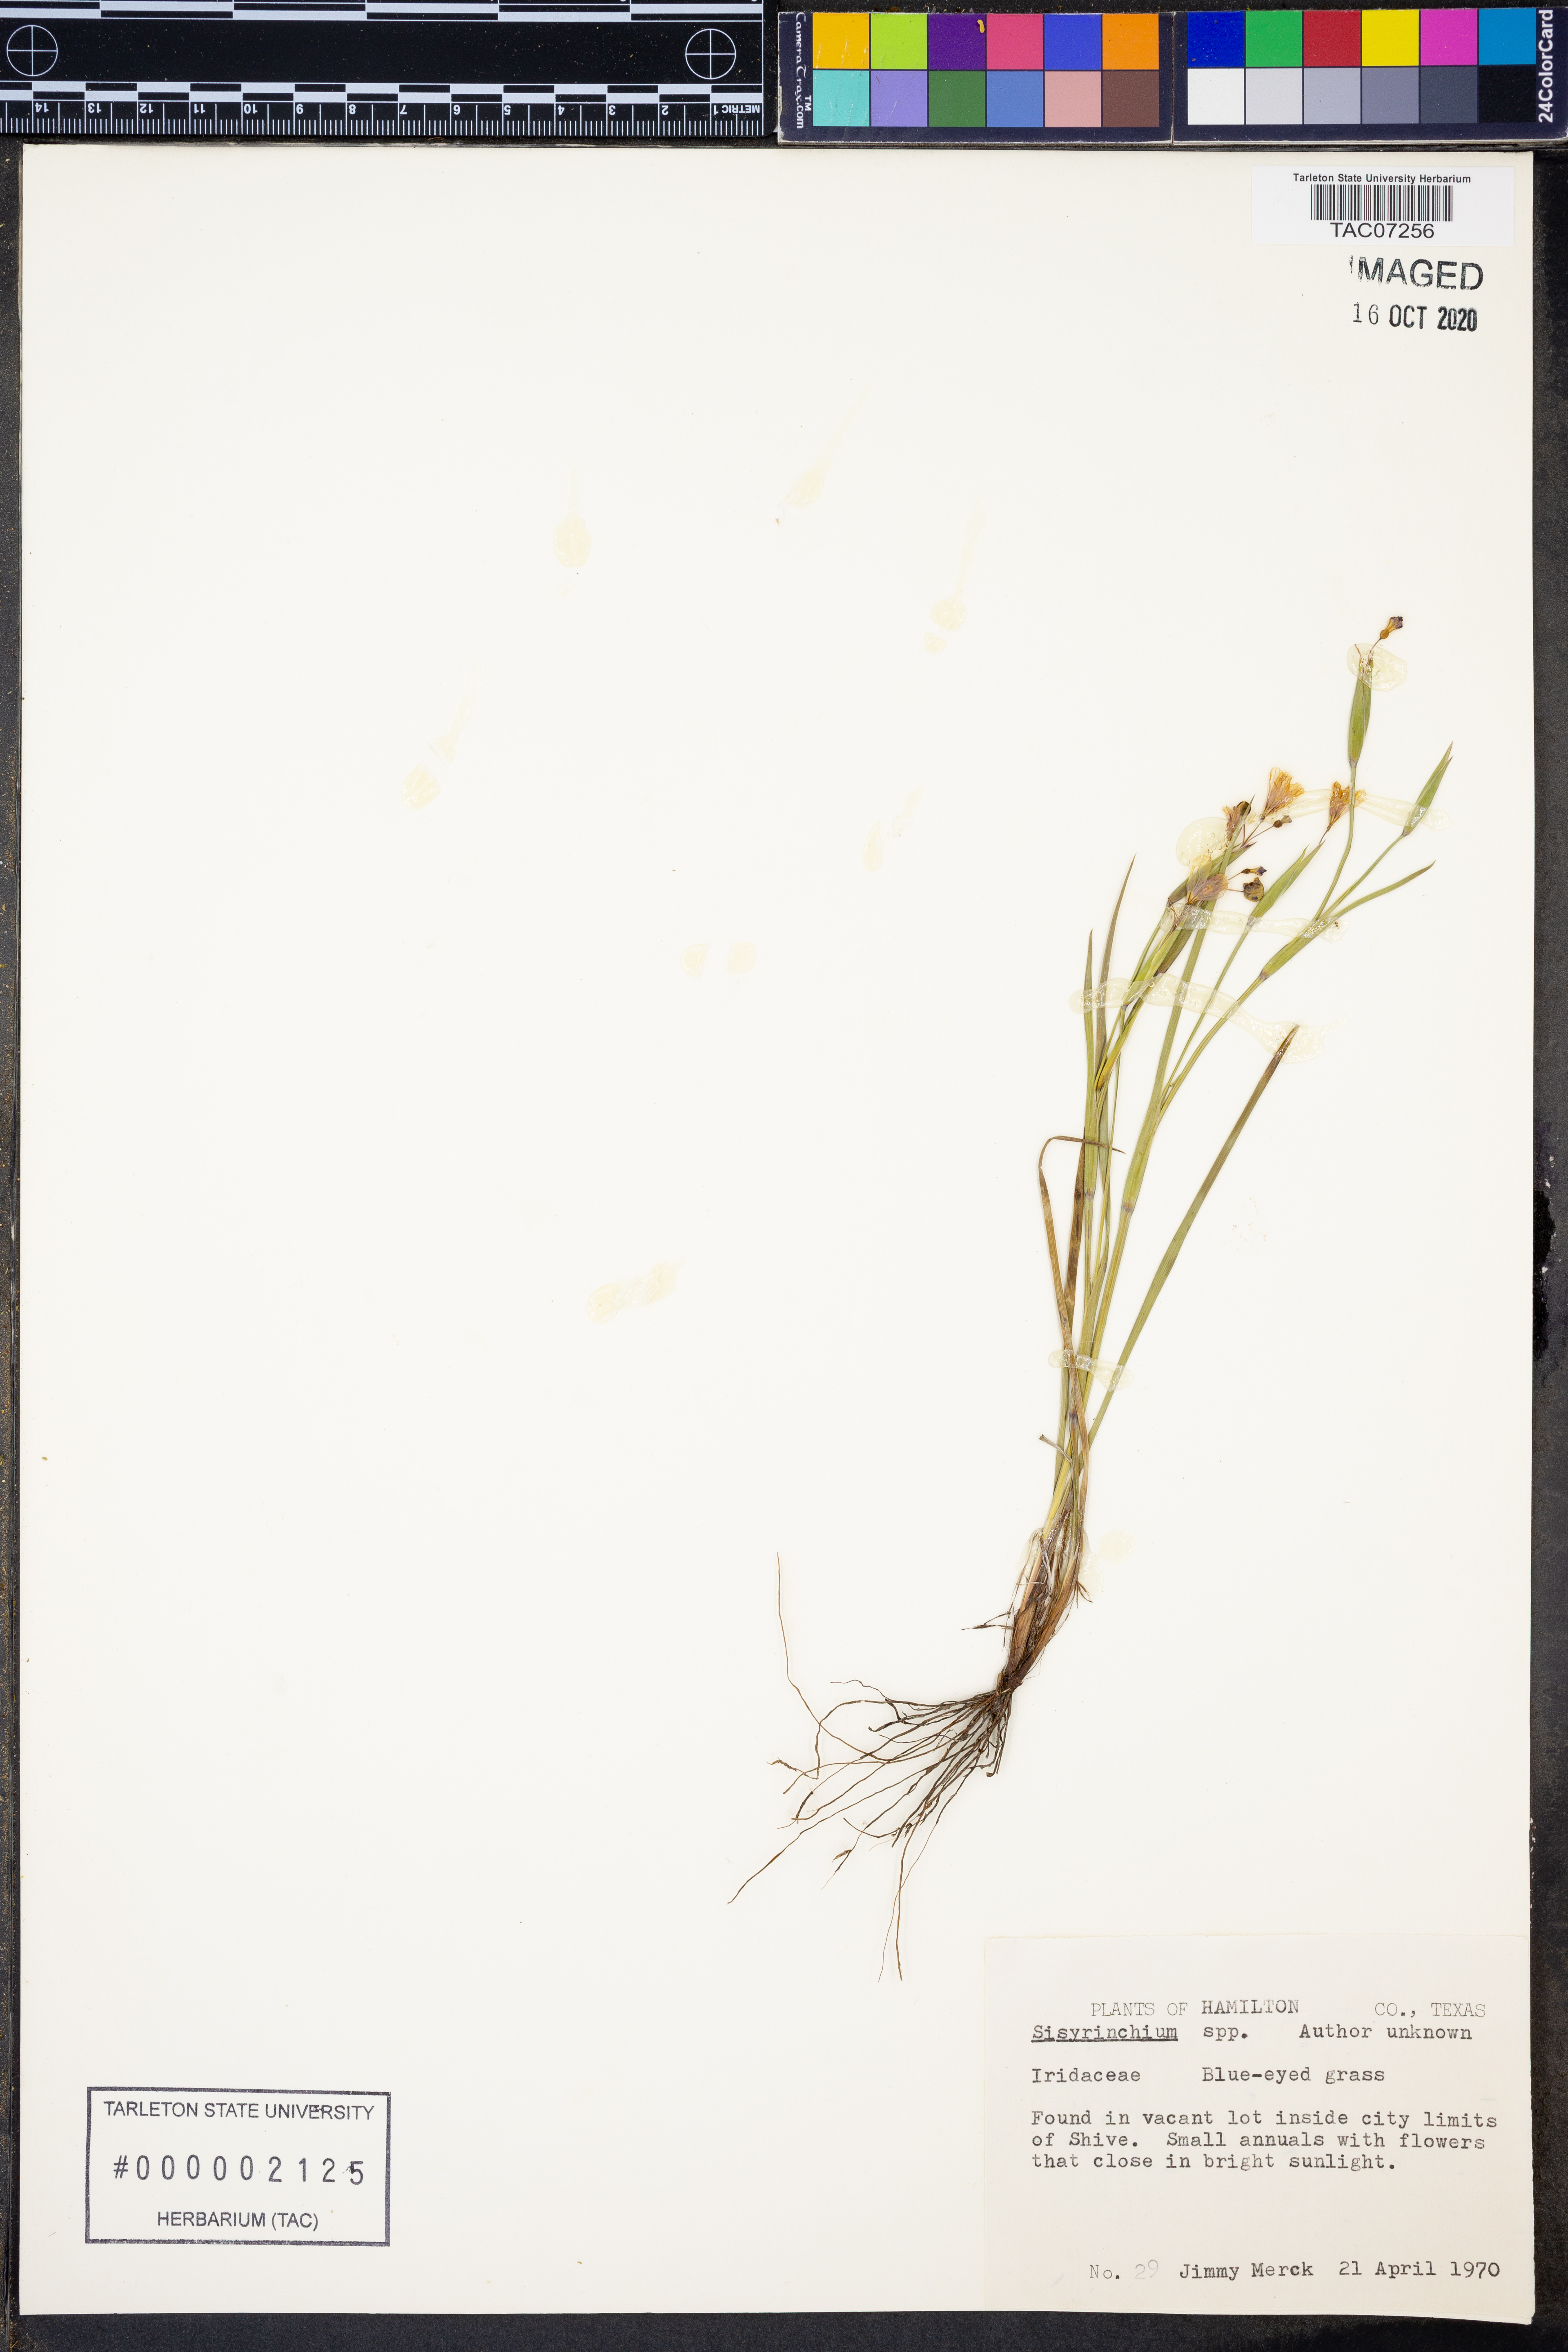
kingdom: Plantae
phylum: Tracheophyta
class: Liliopsida
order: Asparagales
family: Iridaceae
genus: Sisyrinchium
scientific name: Sisyrinchium
